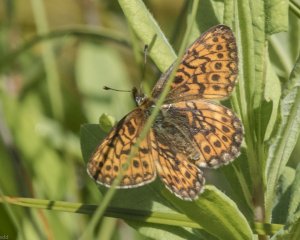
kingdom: Animalia
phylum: Arthropoda
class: Insecta
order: Lepidoptera
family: Nymphalidae
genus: Chlosyne
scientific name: Chlosyne harrisii
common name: Harris's Checkerspot
